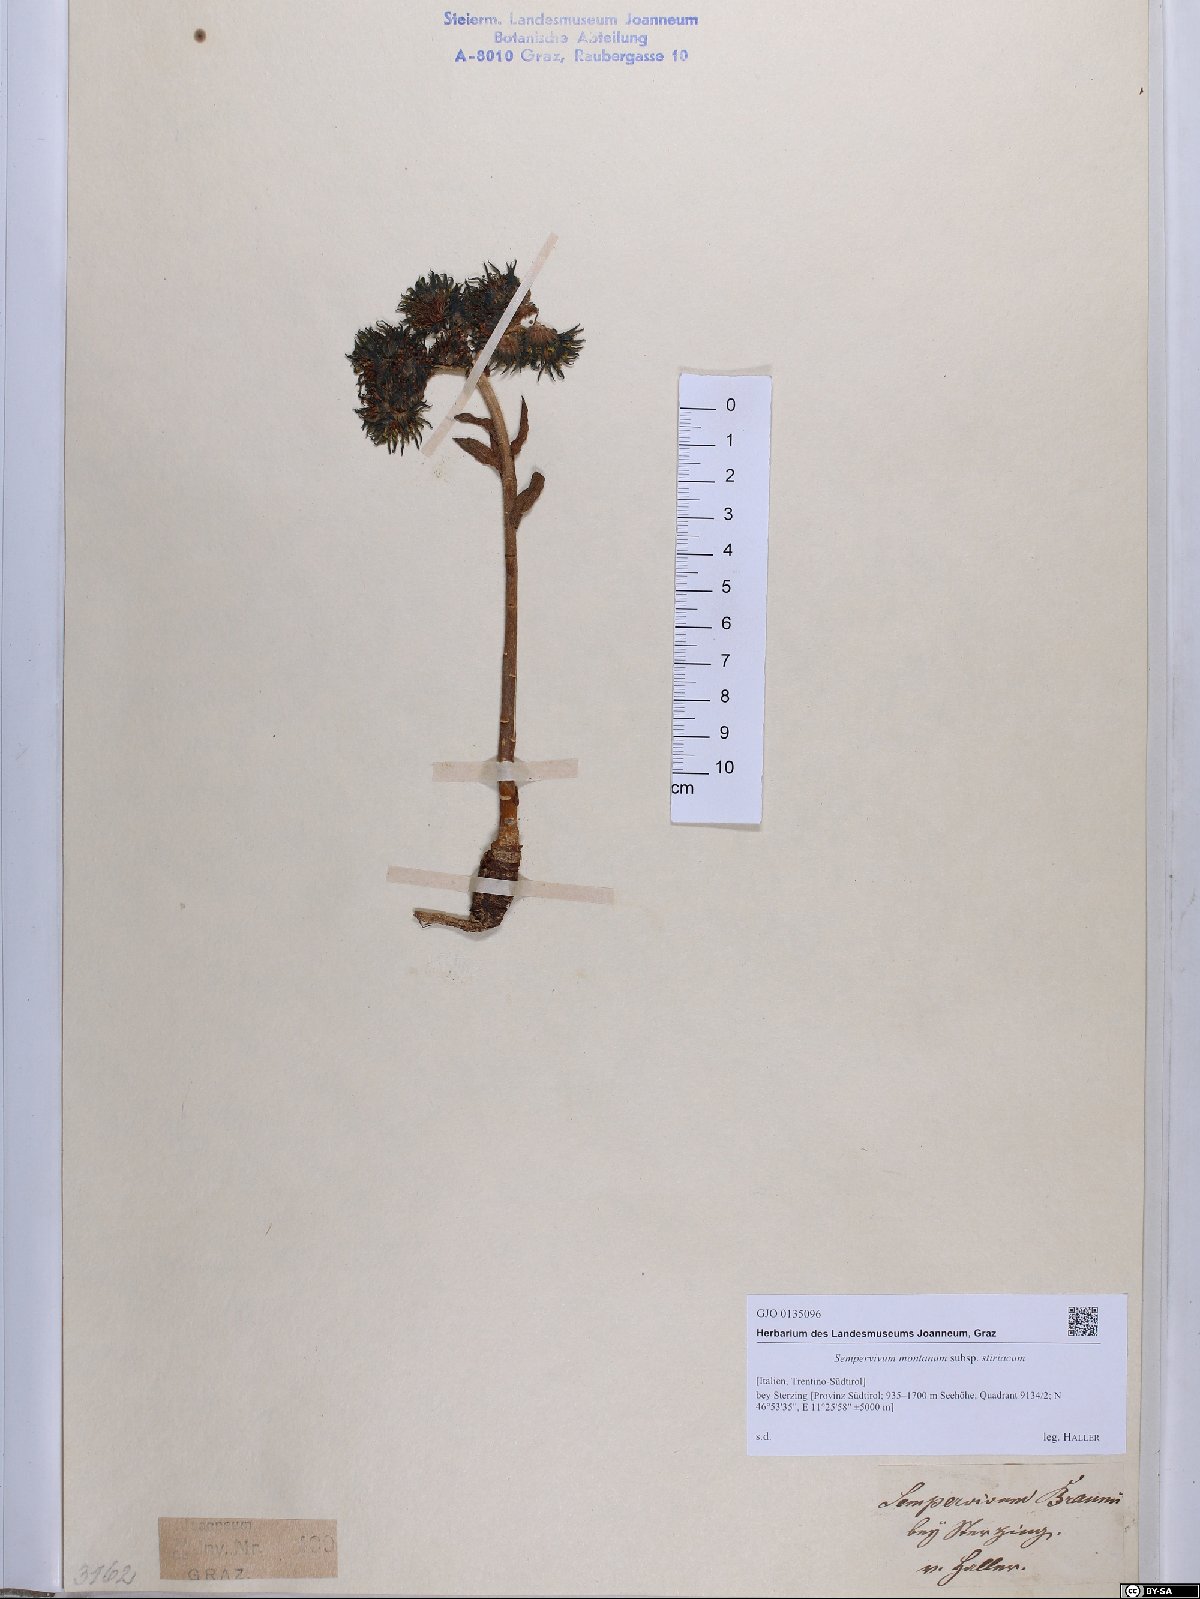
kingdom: Plantae
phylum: Tracheophyta
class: Magnoliopsida
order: Saxifragales
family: Crassulaceae
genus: Sempervivum
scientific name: Sempervivum montanum
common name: Mountain house-leek
